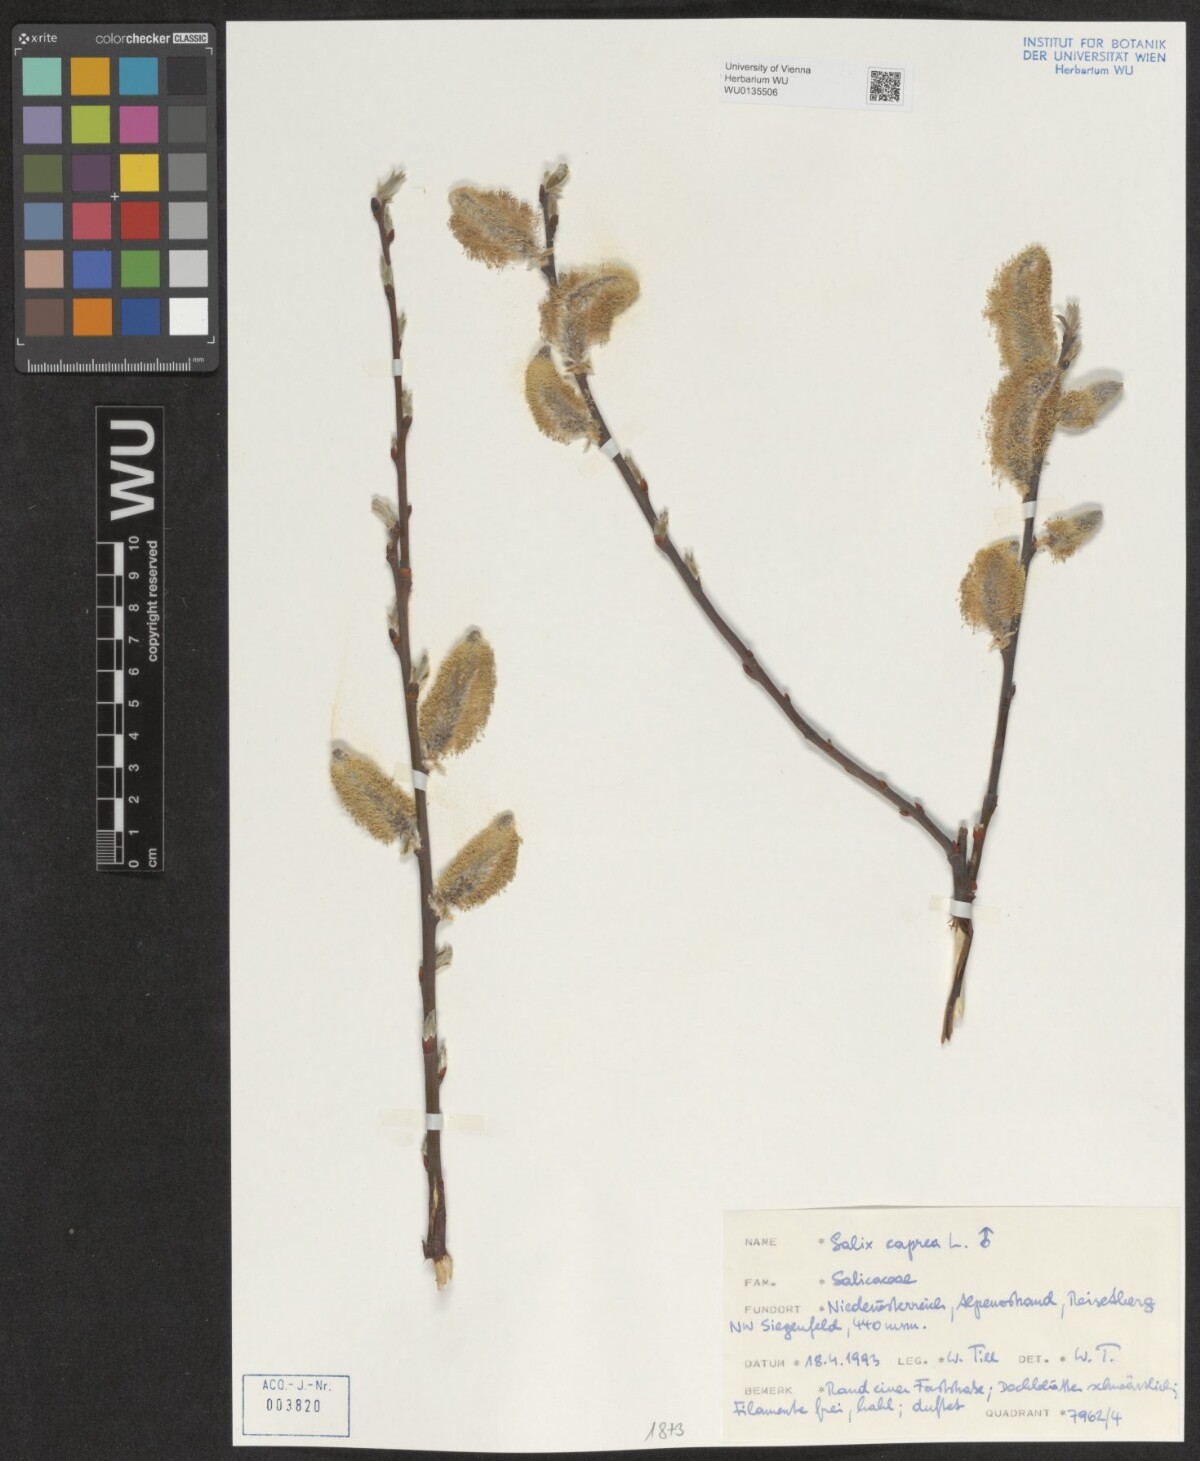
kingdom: Plantae
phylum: Tracheophyta
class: Magnoliopsida
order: Malpighiales
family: Salicaceae
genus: Salix
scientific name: Salix caprea
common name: Goat willow
